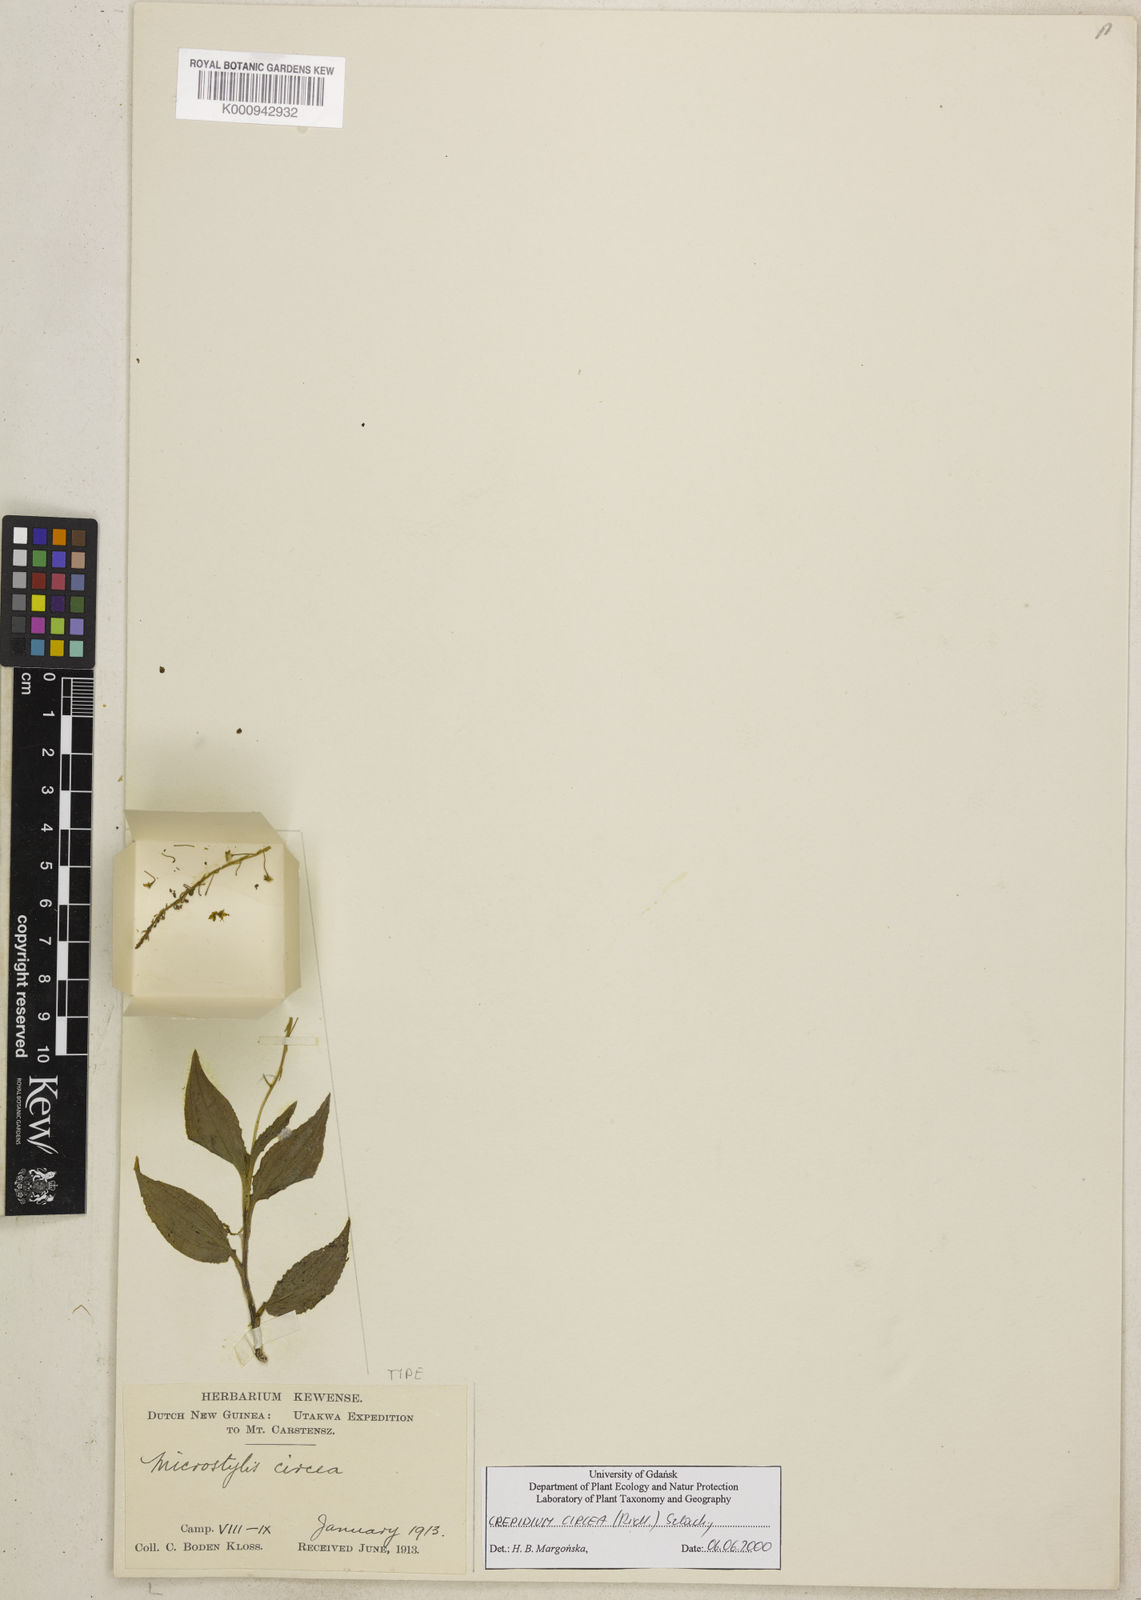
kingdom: Plantae
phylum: Tracheophyta
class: Liliopsida
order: Asparagales
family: Orchidaceae
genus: Crepidium
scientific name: Crepidium circeum
